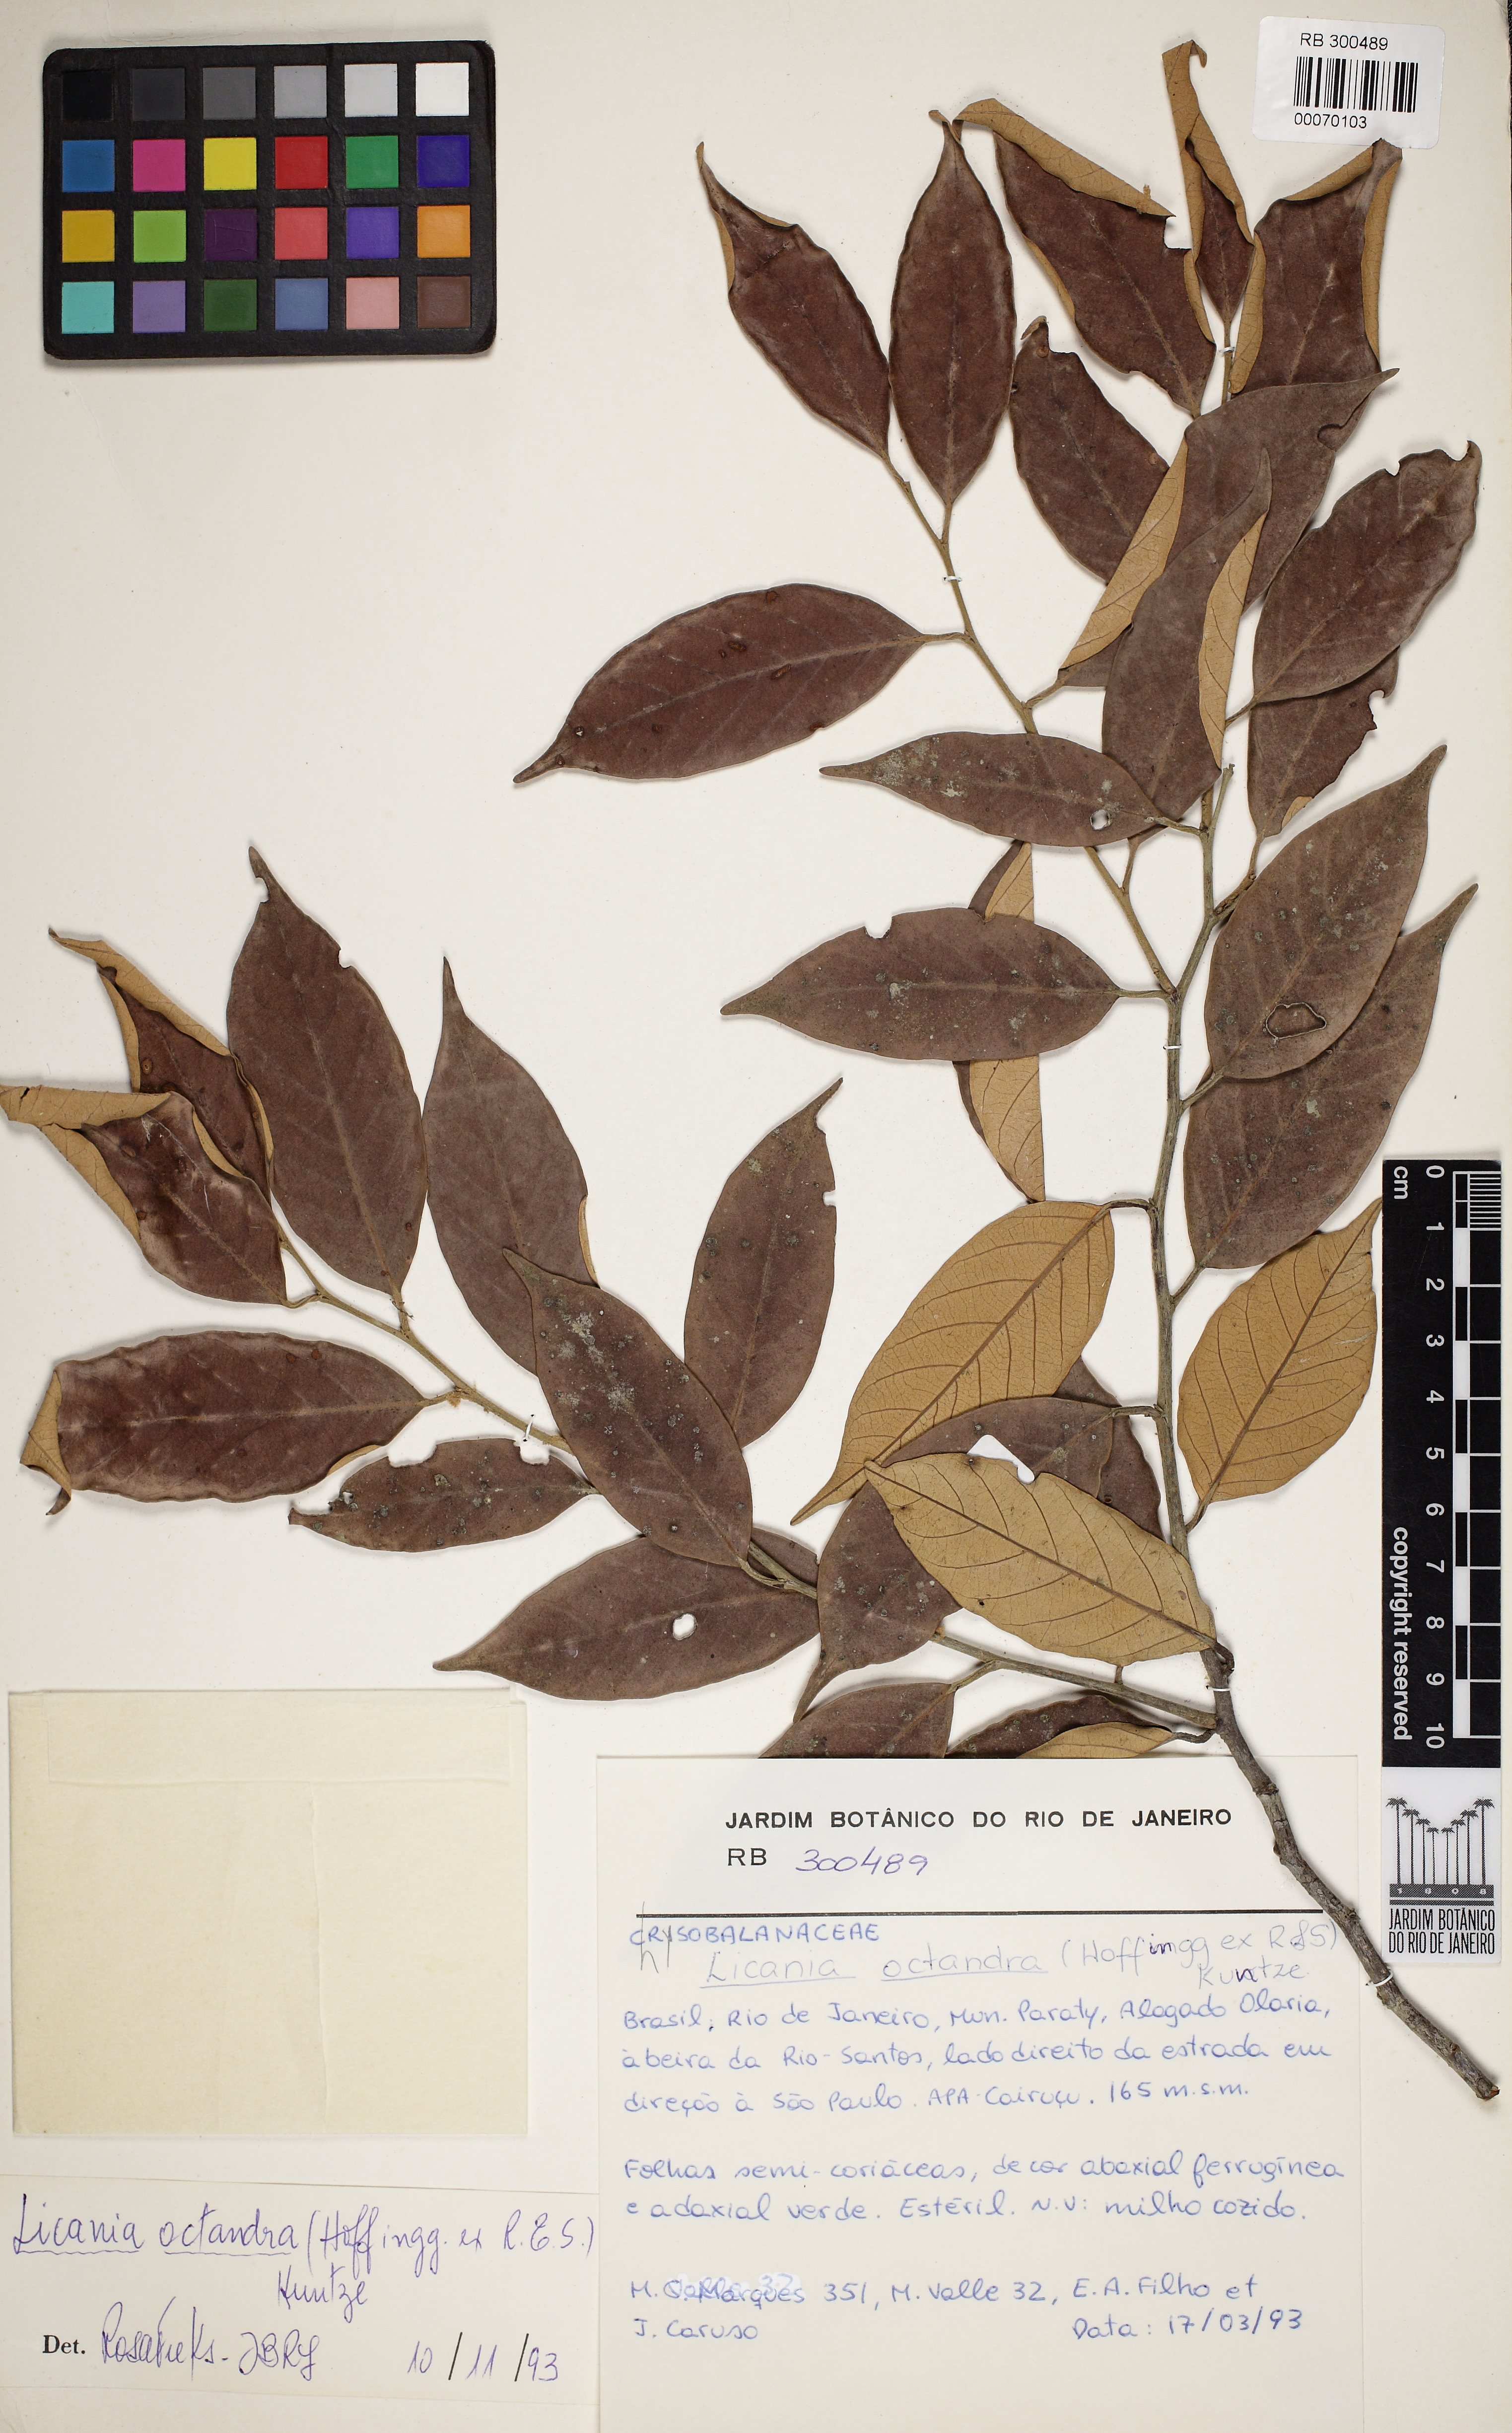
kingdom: Plantae
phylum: Tracheophyta
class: Magnoliopsida
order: Malpighiales
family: Chrysobalanaceae
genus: Leptobalanus
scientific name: Leptobalanus octandrus
